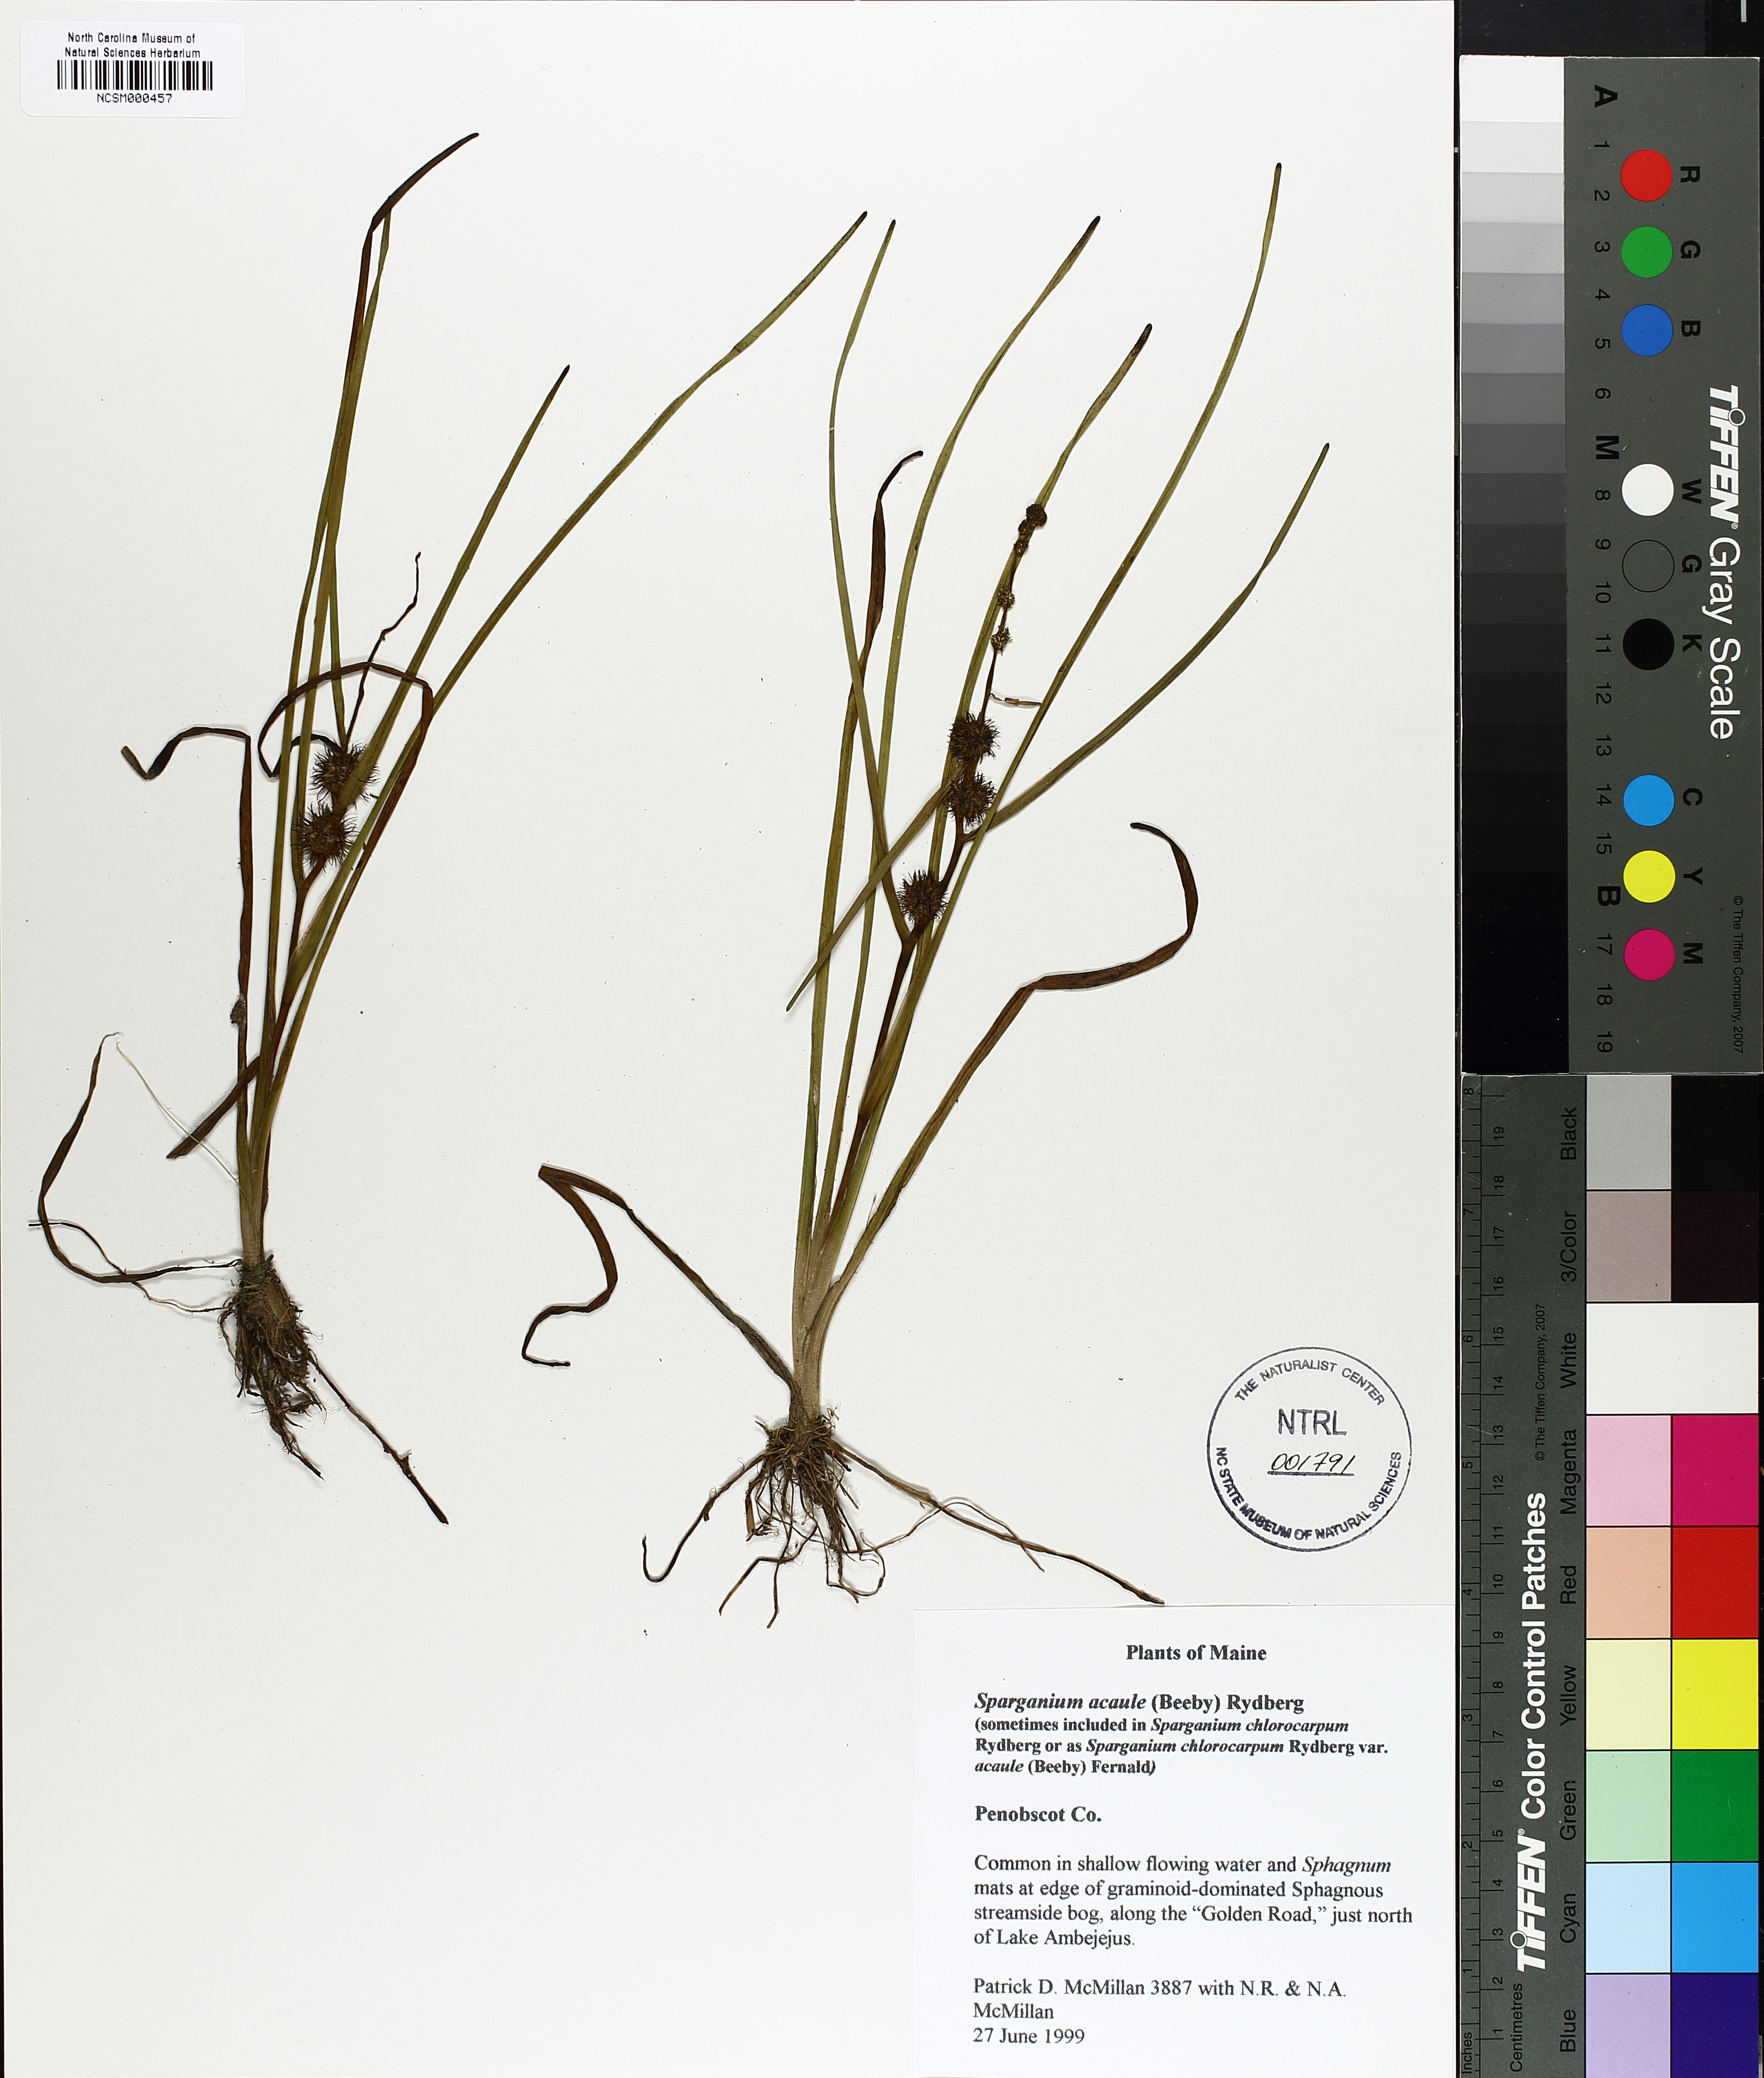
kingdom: Plantae
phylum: Tracheophyta
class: Liliopsida
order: Poales
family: Typhaceae
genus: Sparganium
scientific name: Sparganium angustifolium
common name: Floating bur-reed
